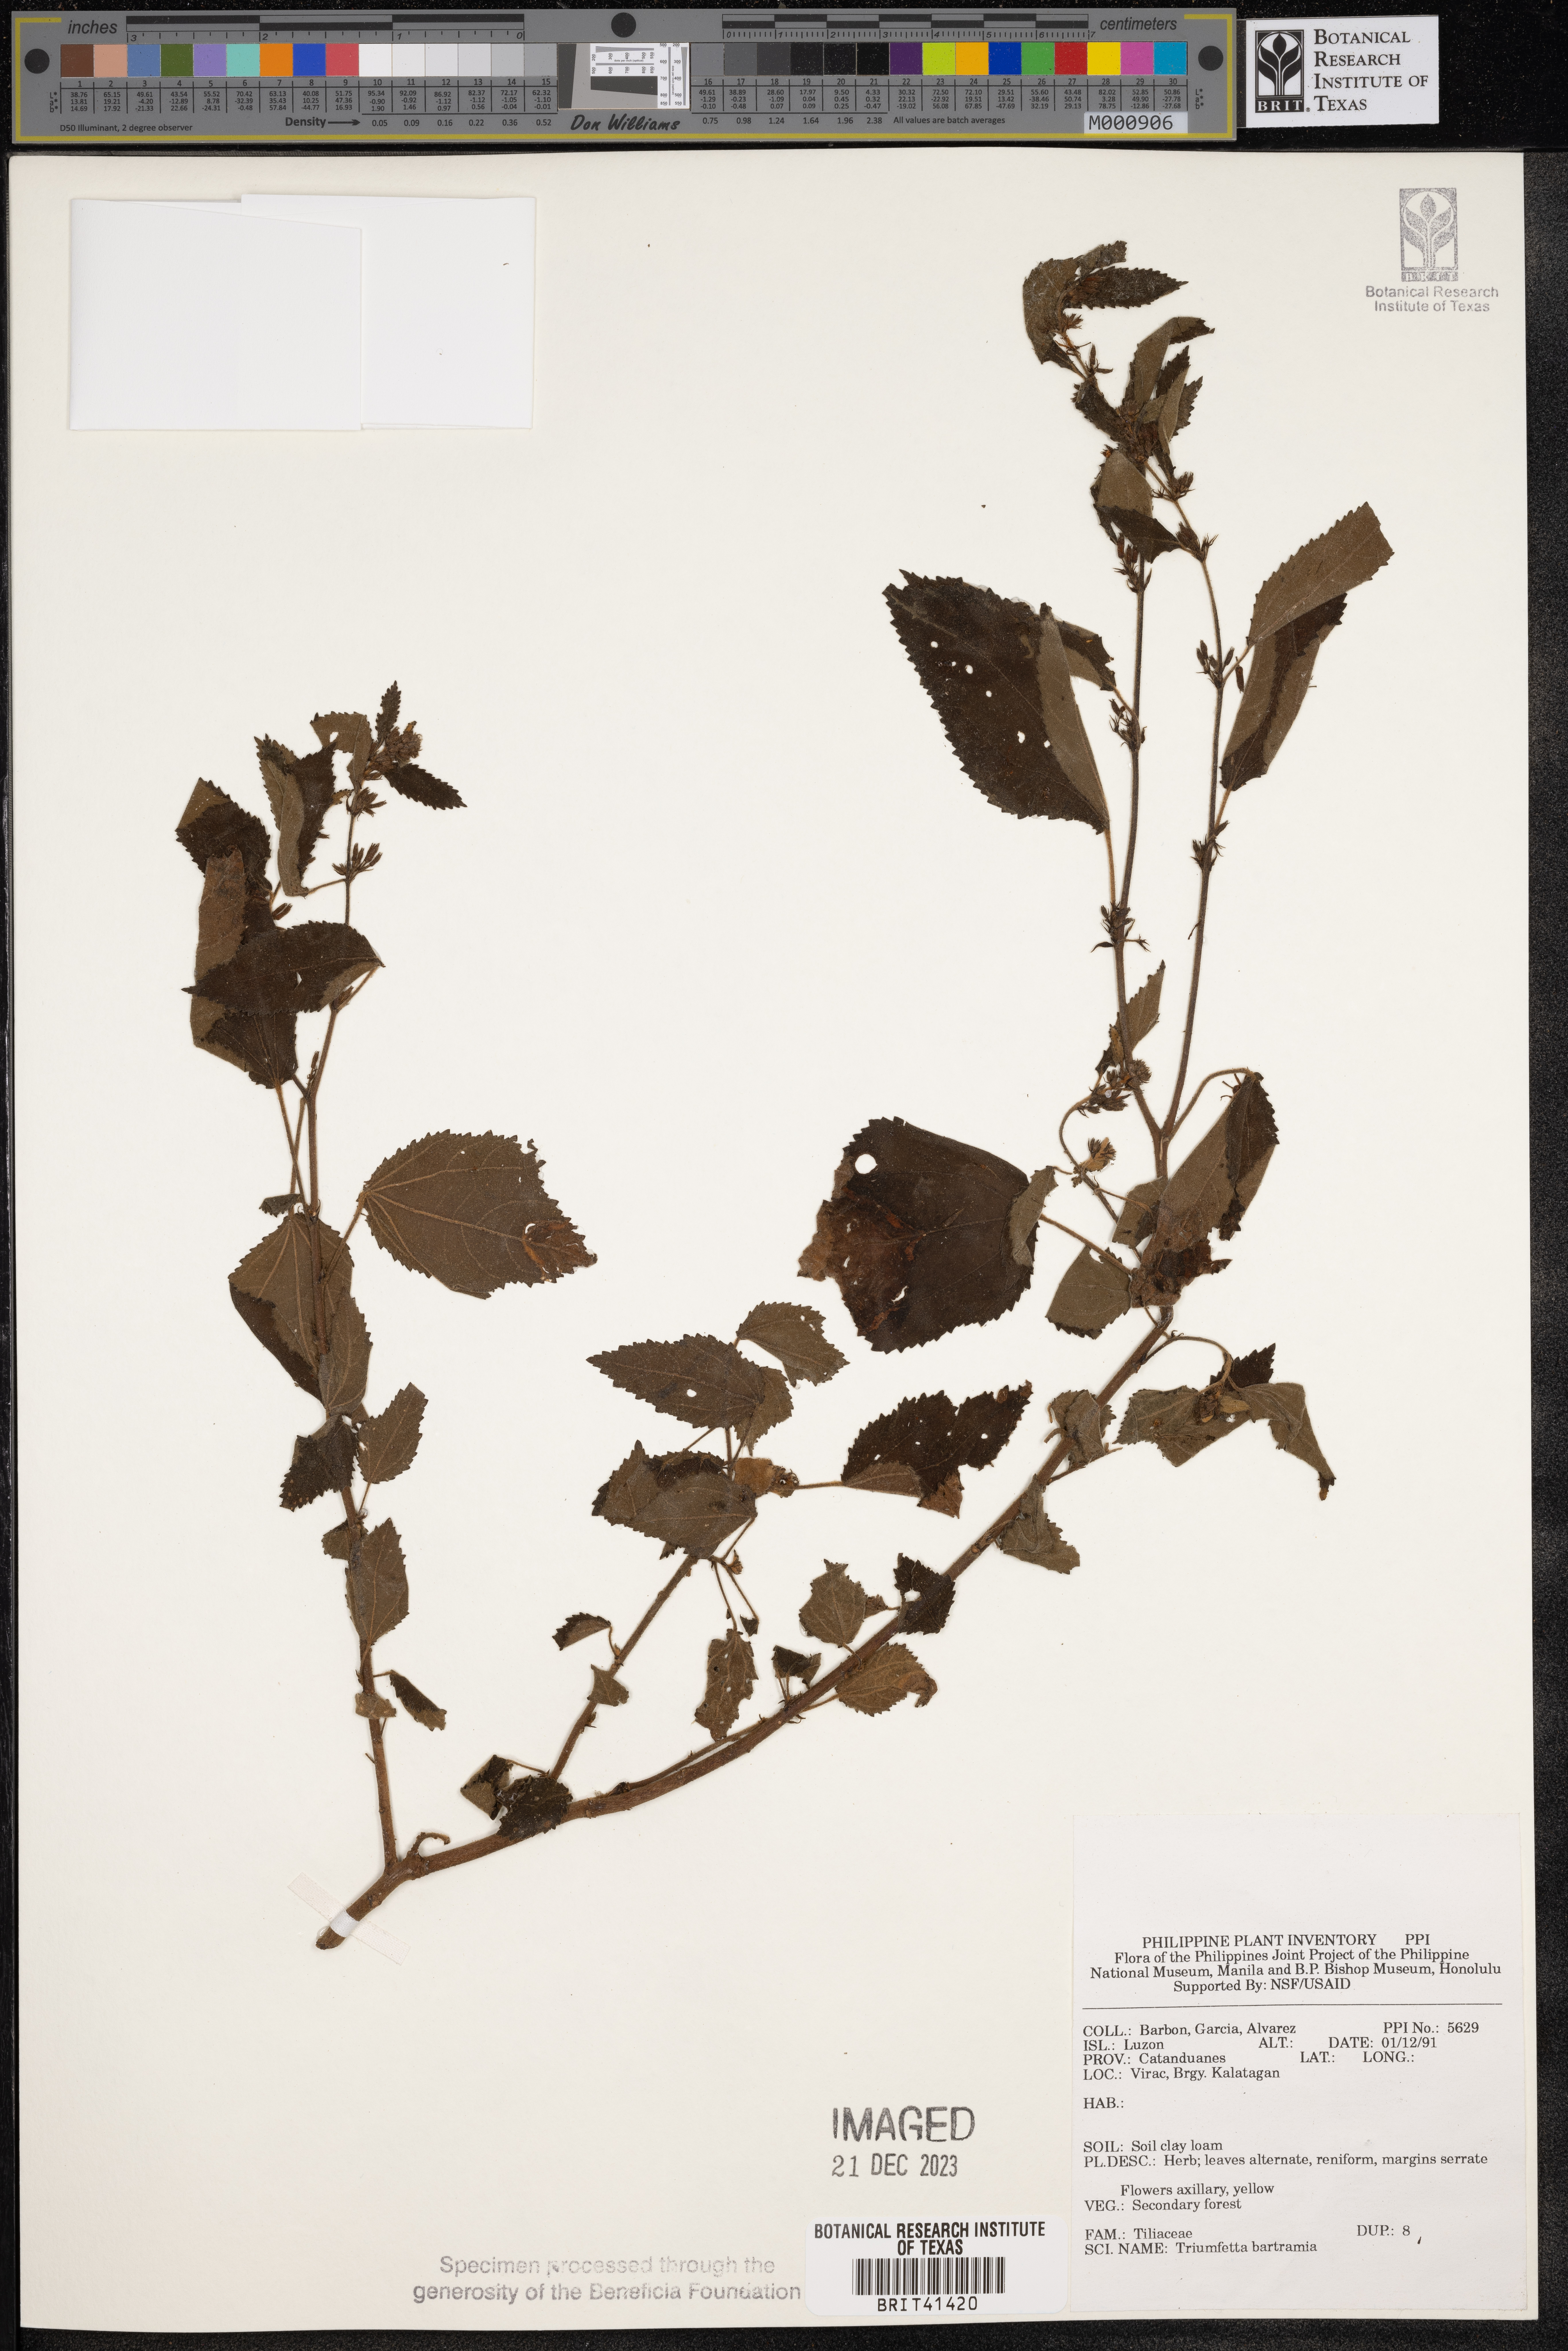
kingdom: Plantae
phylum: Tracheophyta
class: Magnoliopsida
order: Malvales
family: Malvaceae
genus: Triumfetta
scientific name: Triumfetta rhomboidea
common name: Diamond burbark
